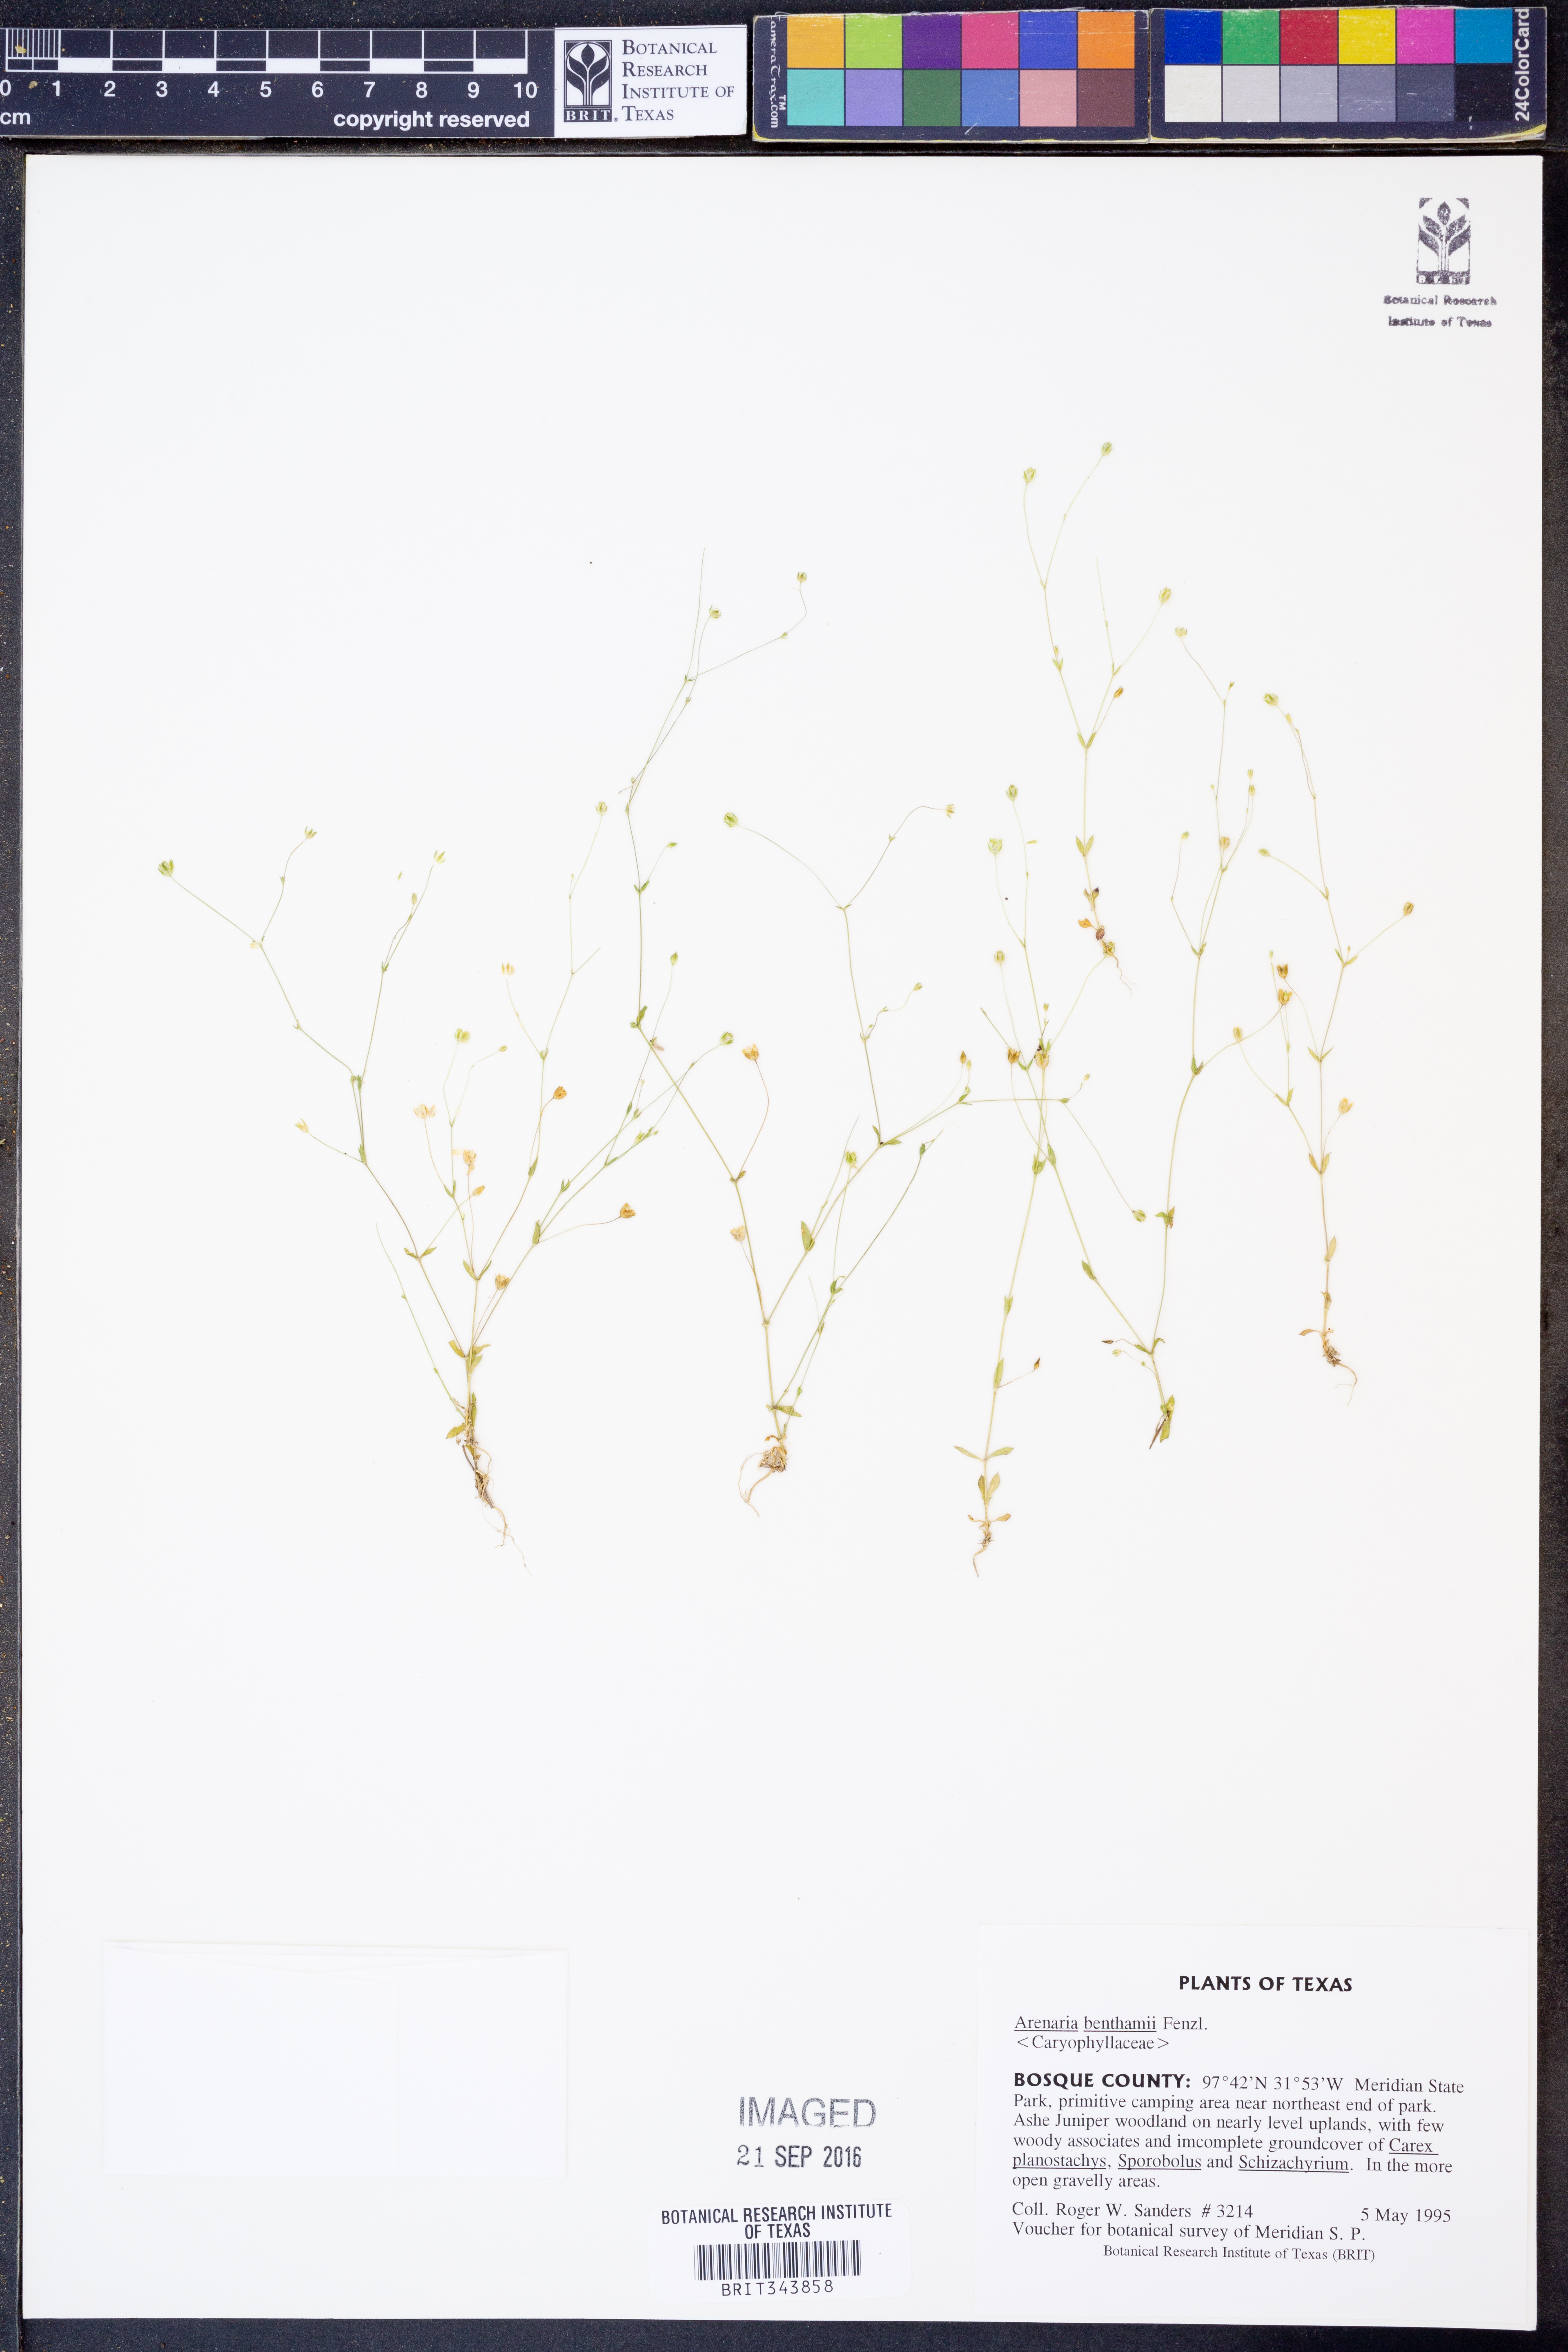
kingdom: Plantae
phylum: Tracheophyta
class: Magnoliopsida
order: Caryophyllales
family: Caryophyllaceae
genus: Arenaria
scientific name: Arenaria benthamii
